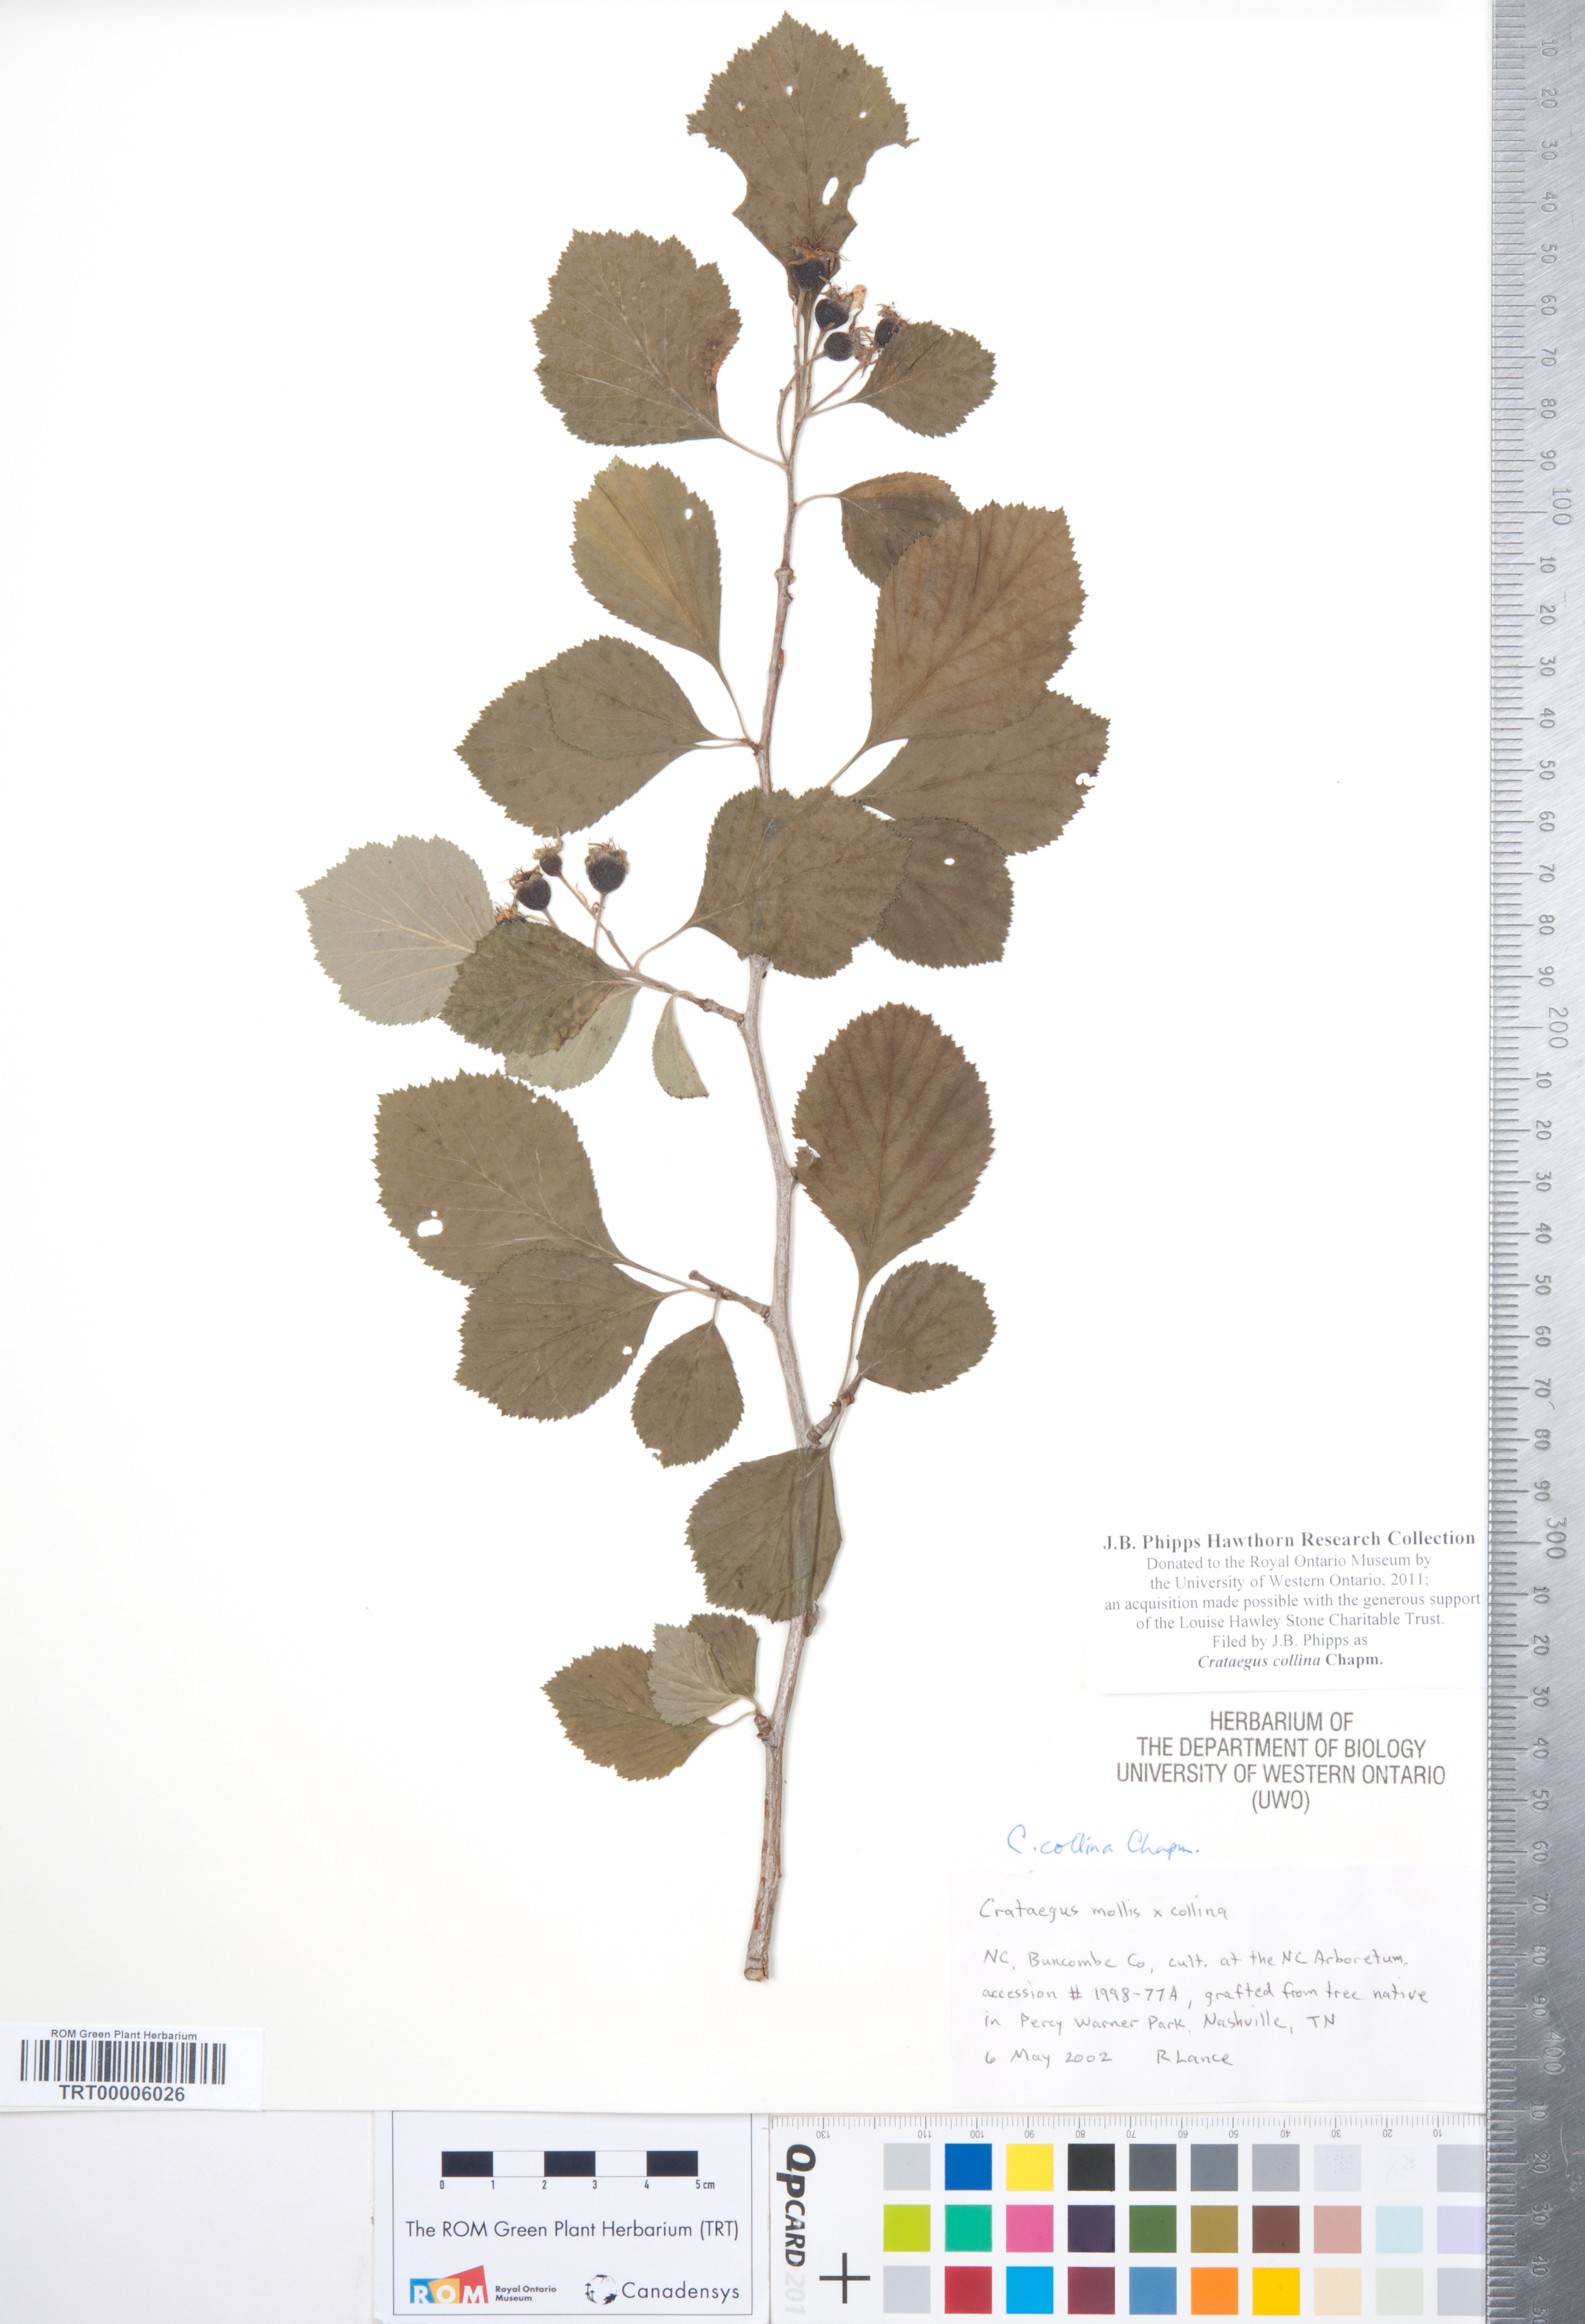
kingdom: Plantae
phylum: Tracheophyta
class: Magnoliopsida
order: Rosales
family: Rosaceae
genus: Crataegus
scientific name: Crataegus collina
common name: Hillside hawthorn
